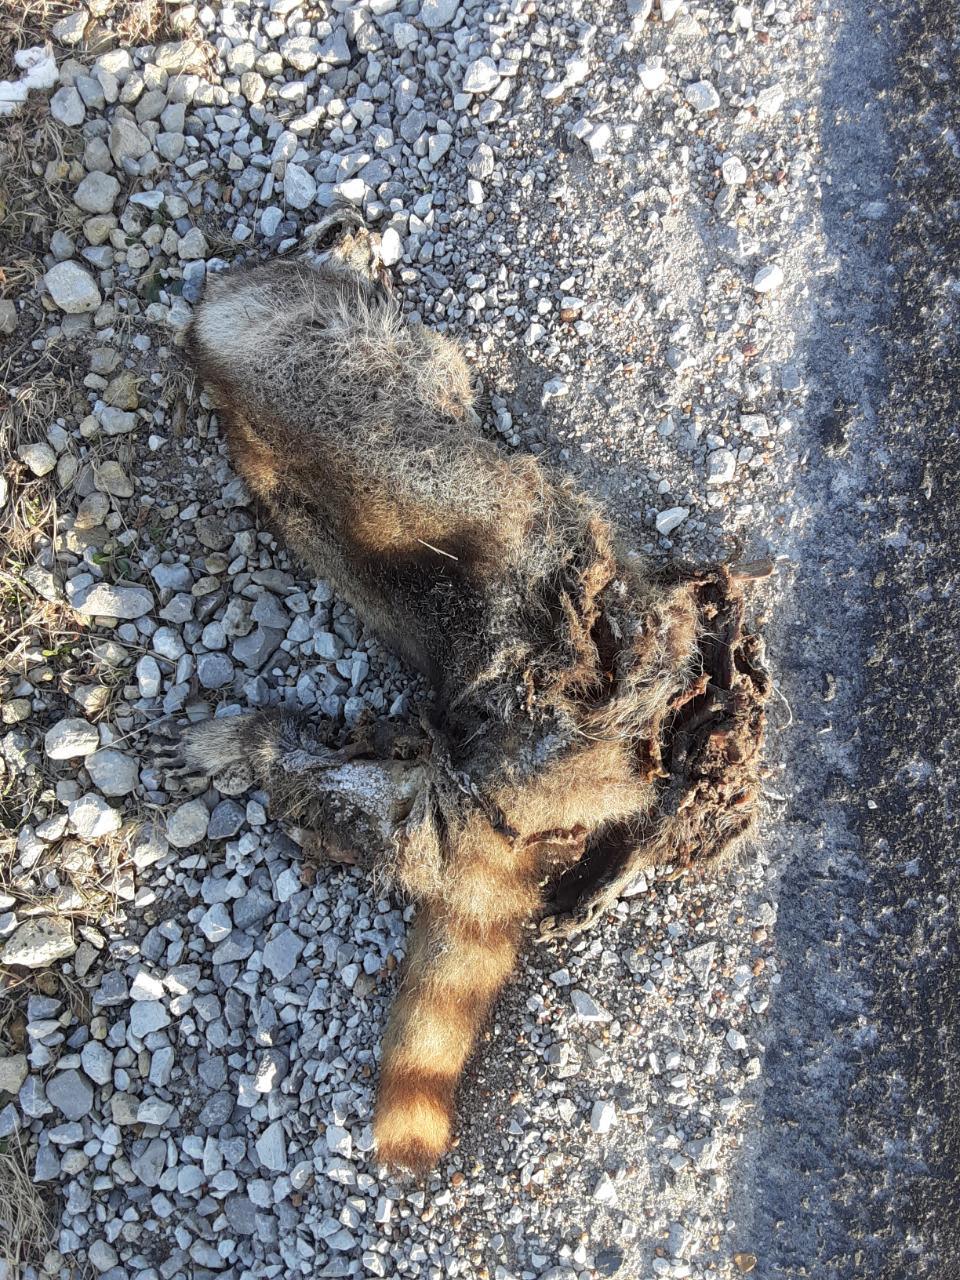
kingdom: Animalia
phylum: Chordata
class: Mammalia
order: Carnivora
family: Procyonidae
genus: Procyon
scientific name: Procyon lotor
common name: Raccoon
